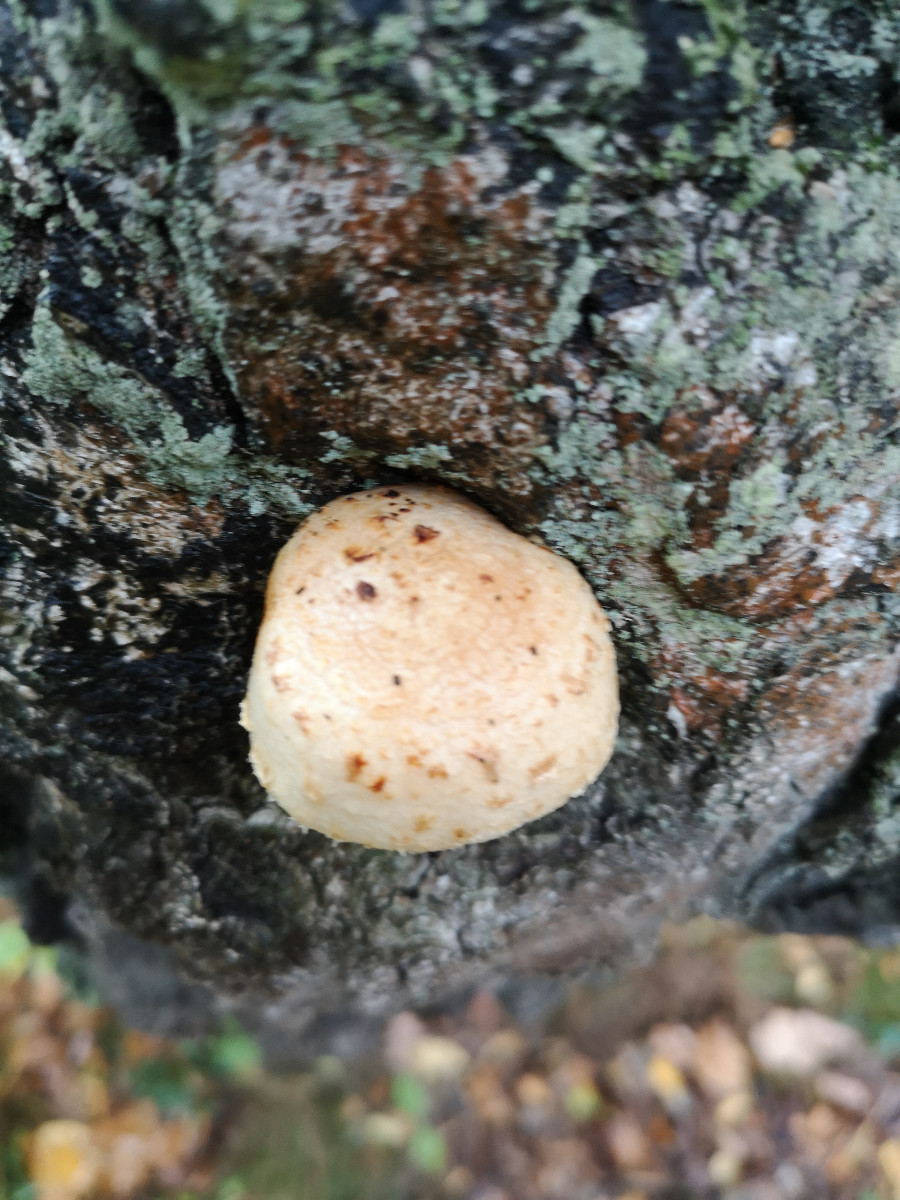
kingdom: Fungi
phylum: Basidiomycota
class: Agaricomycetes
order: Agaricales
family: Strophariaceae
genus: Pholiota
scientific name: Pholiota heteroclita
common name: duftende kæmpeskælhat
